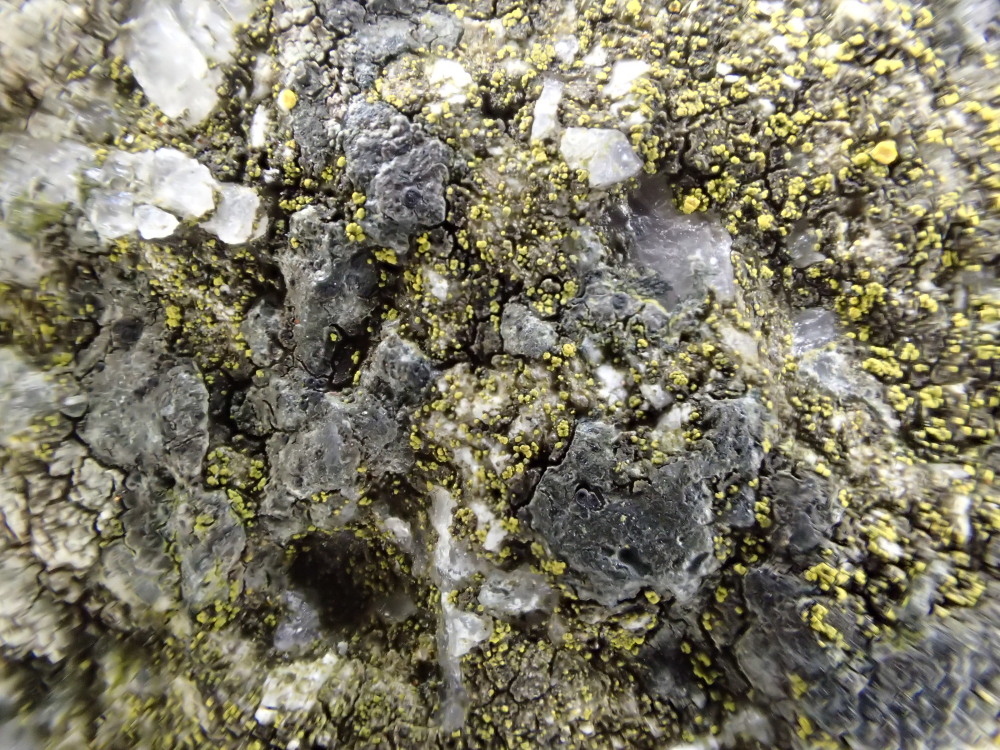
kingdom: Fungi
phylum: Ascomycota
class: Candelariomycetes
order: Candelariales
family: Candelariaceae
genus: Candelariella
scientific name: Candelariella aurella
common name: liden æggeblommelav
